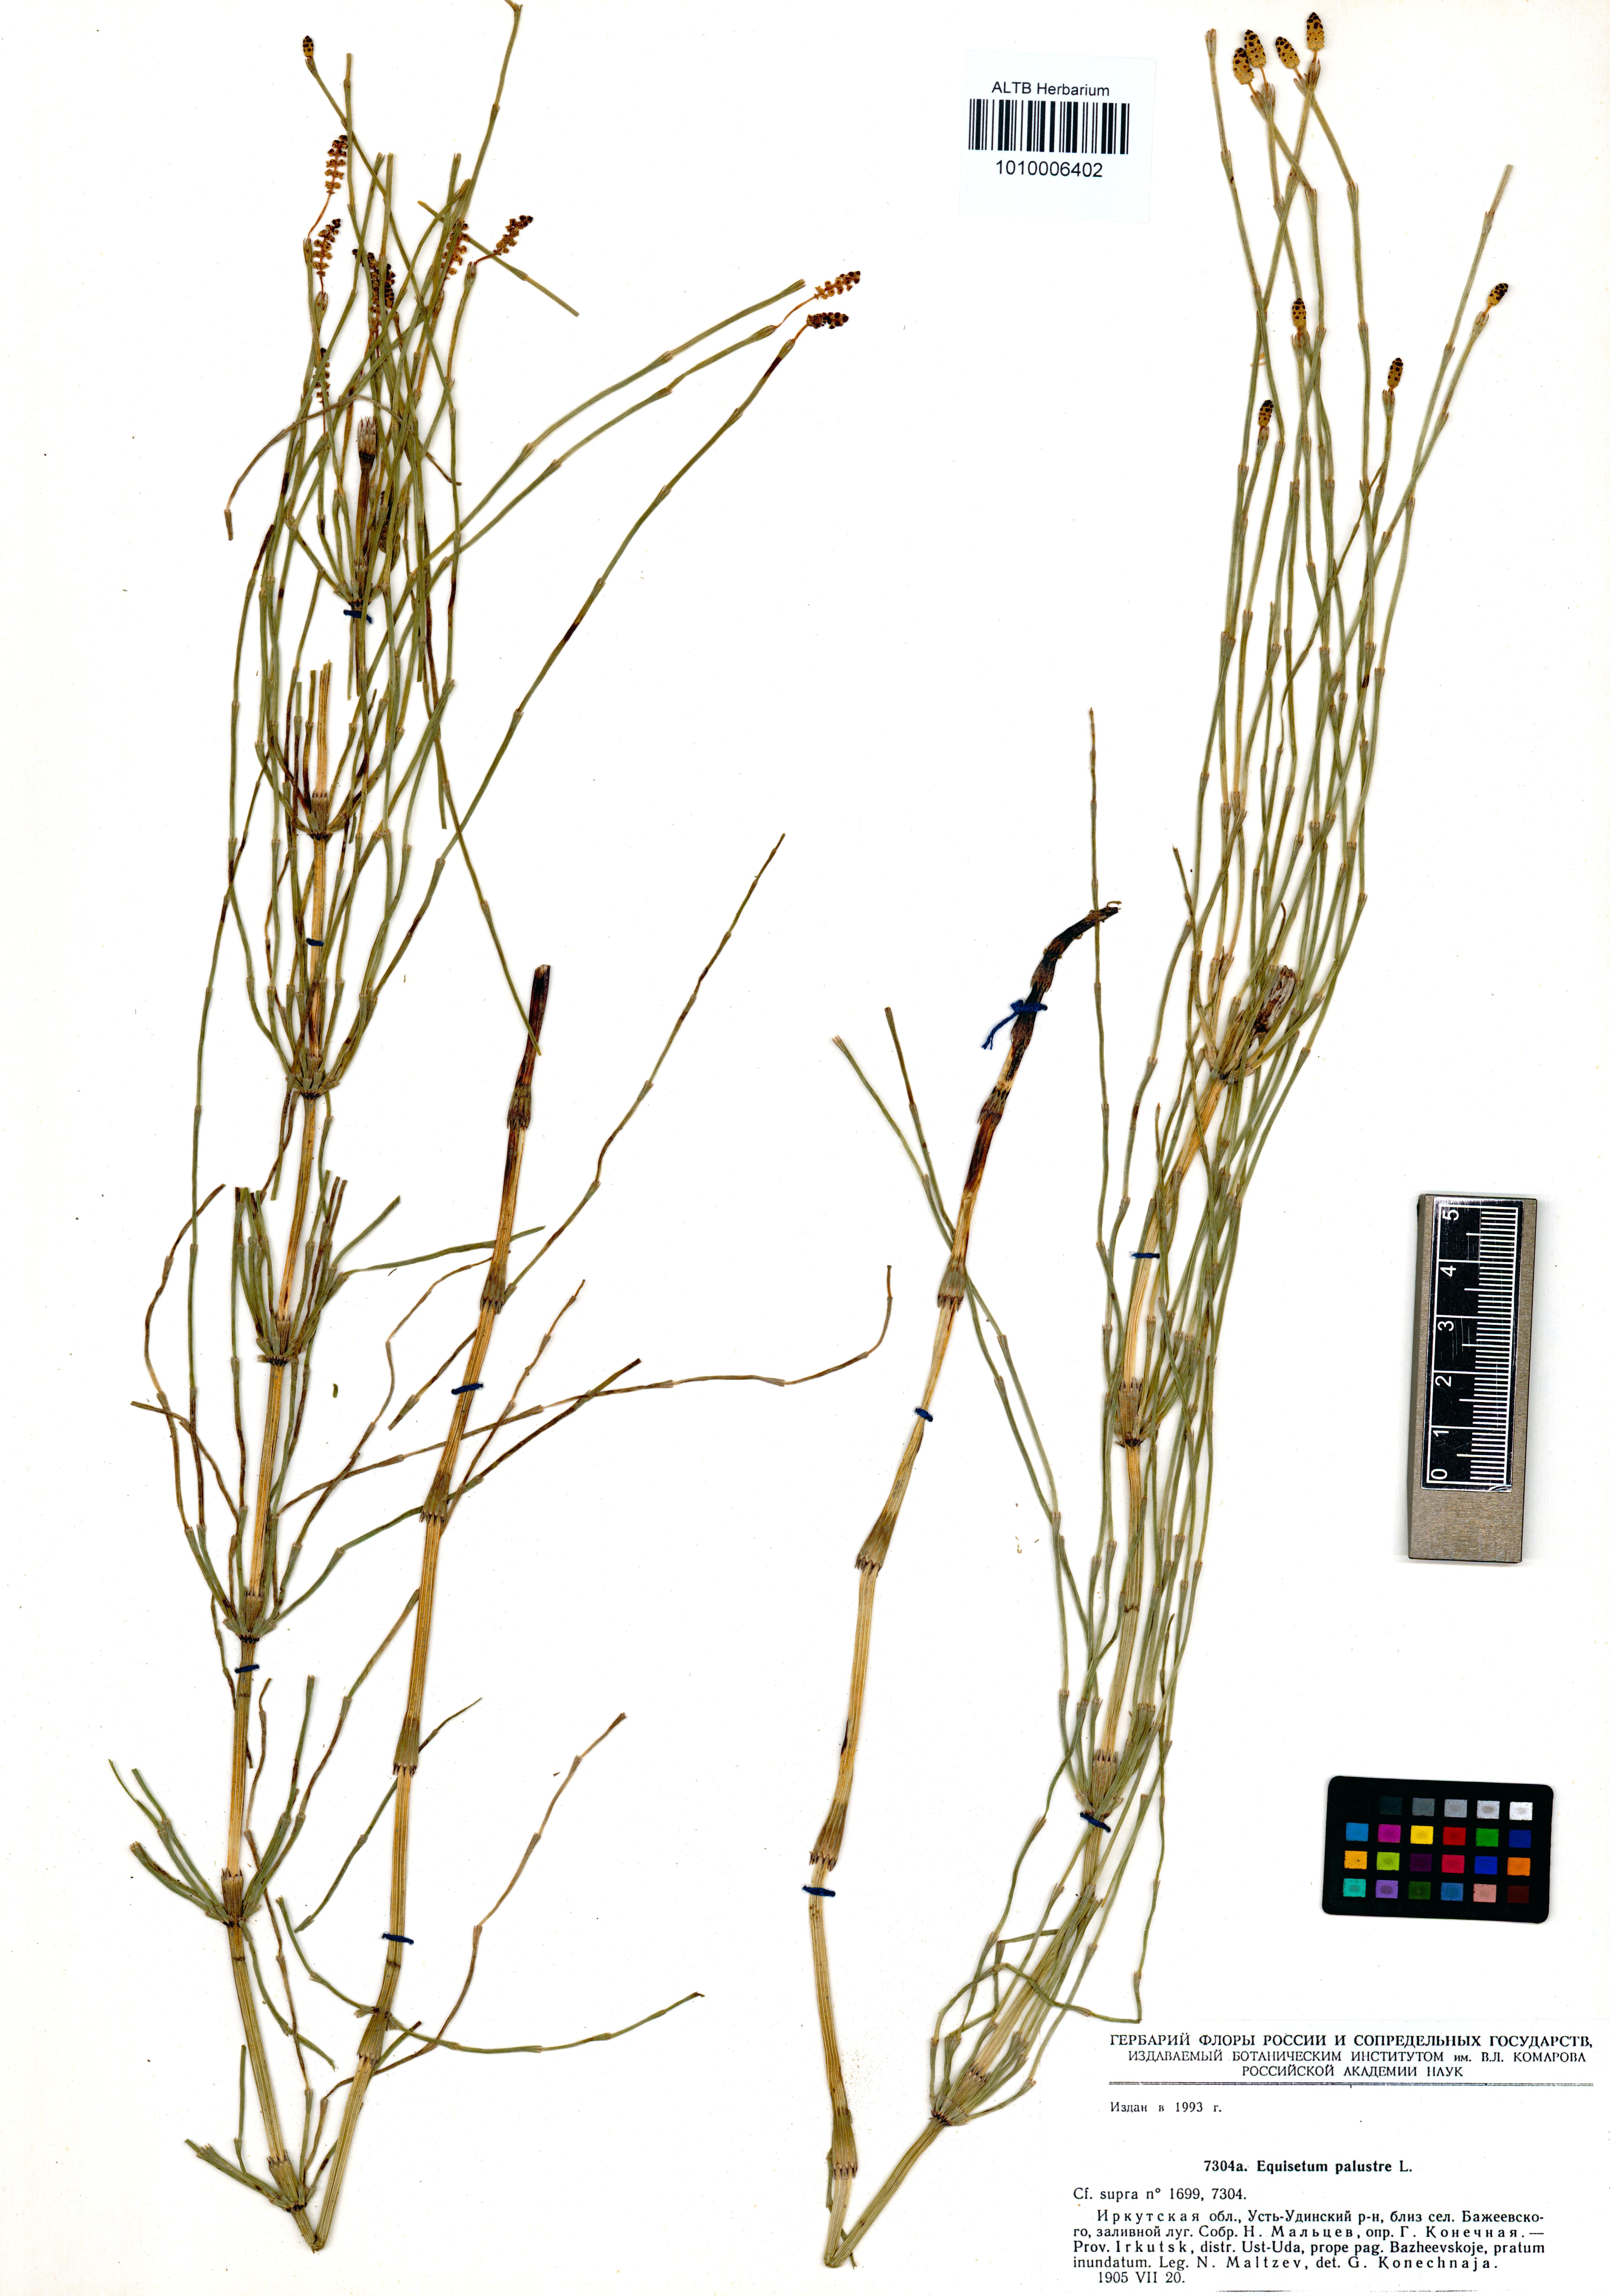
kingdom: Plantae
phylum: Tracheophyta
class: Polypodiopsida
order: Equisetales
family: Equisetaceae
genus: Equisetum
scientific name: Equisetum palustre
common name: Marsh horsetail
